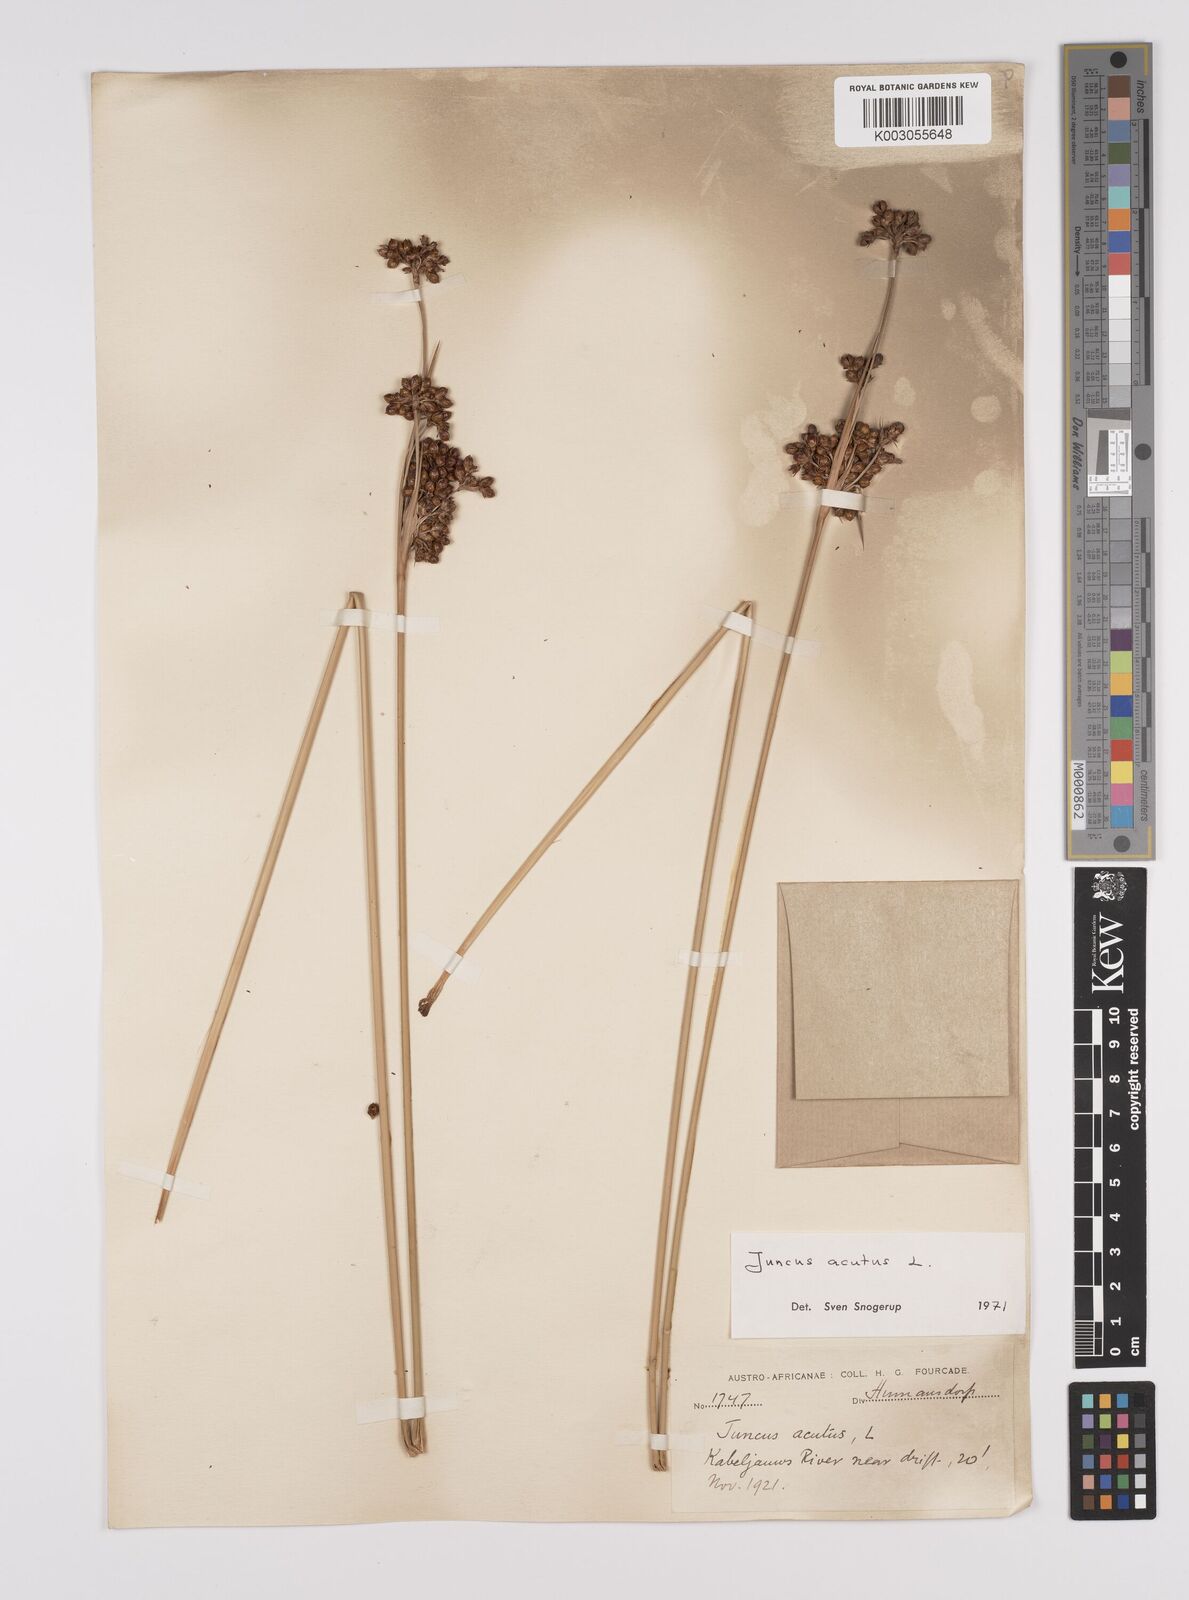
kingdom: Plantae
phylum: Tracheophyta
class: Liliopsida
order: Poales
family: Juncaceae
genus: Juncus
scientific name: Juncus acutus
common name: Sharp rush
